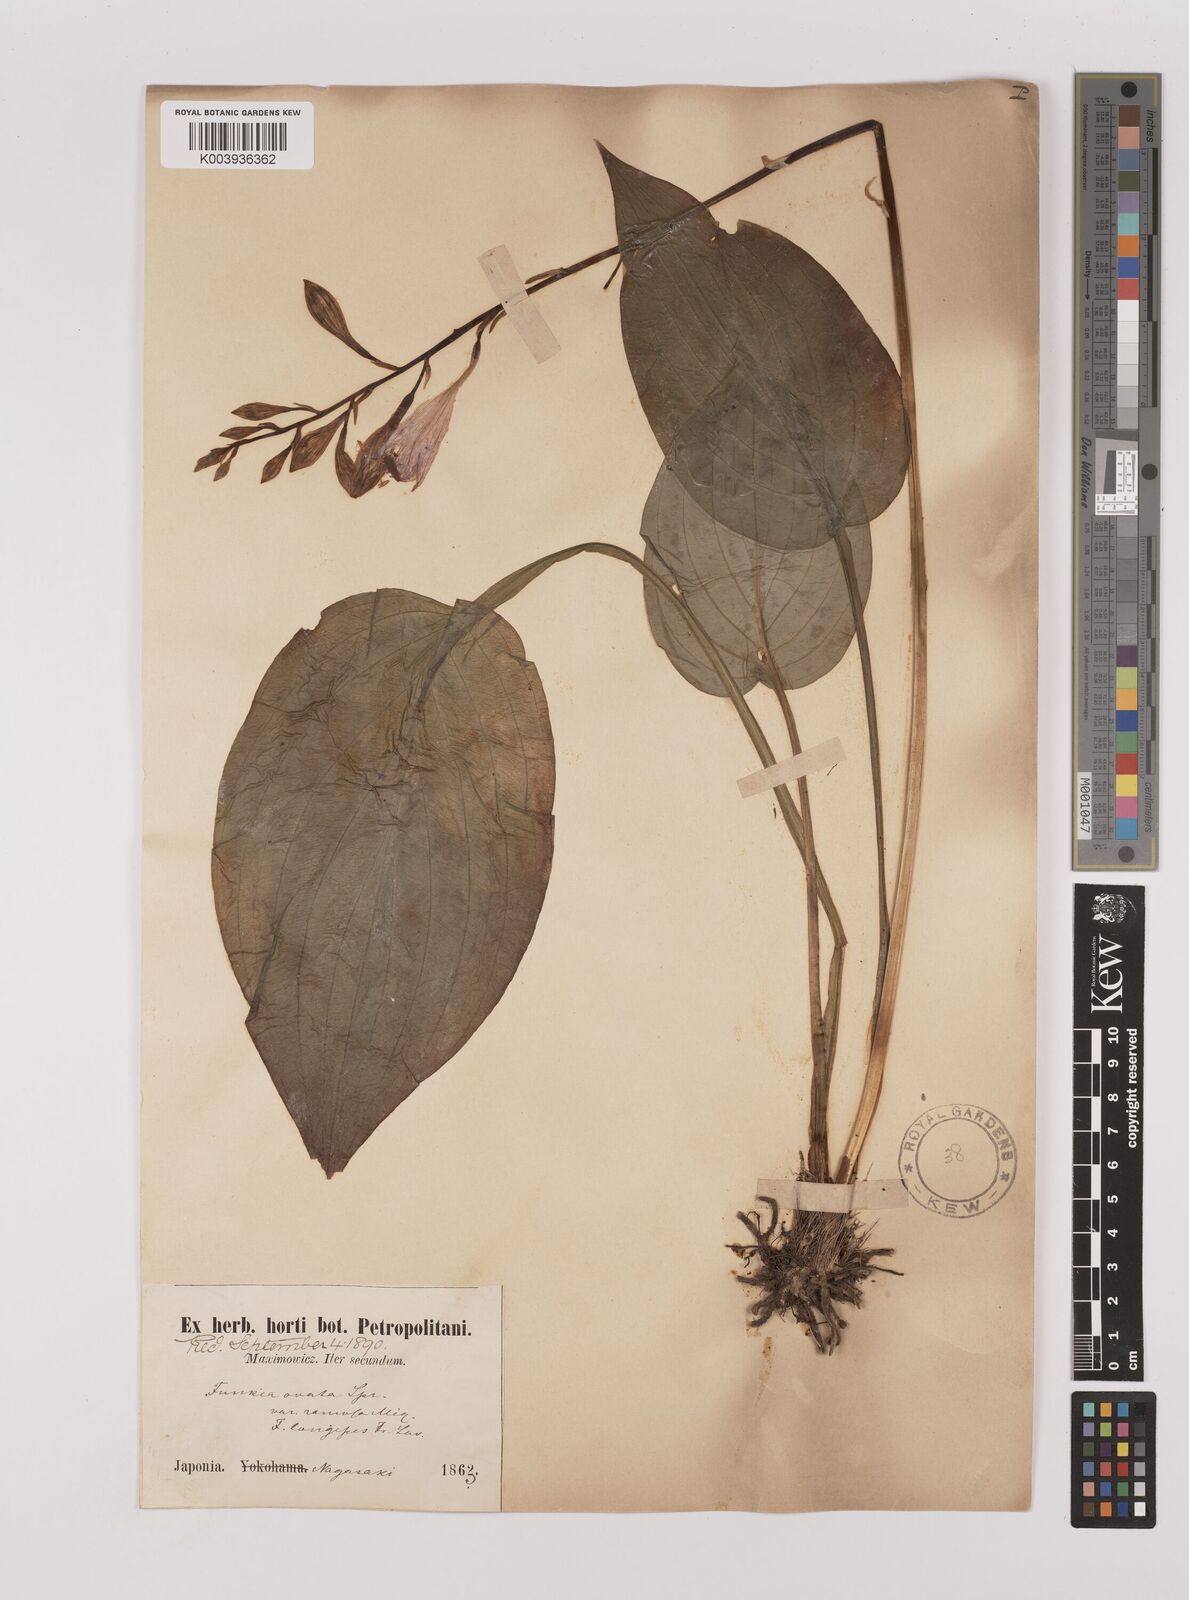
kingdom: Plantae
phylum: Tracheophyta
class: Liliopsida
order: Asparagales
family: Asparagaceae
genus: Hosta
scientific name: Hosta sieboldii
